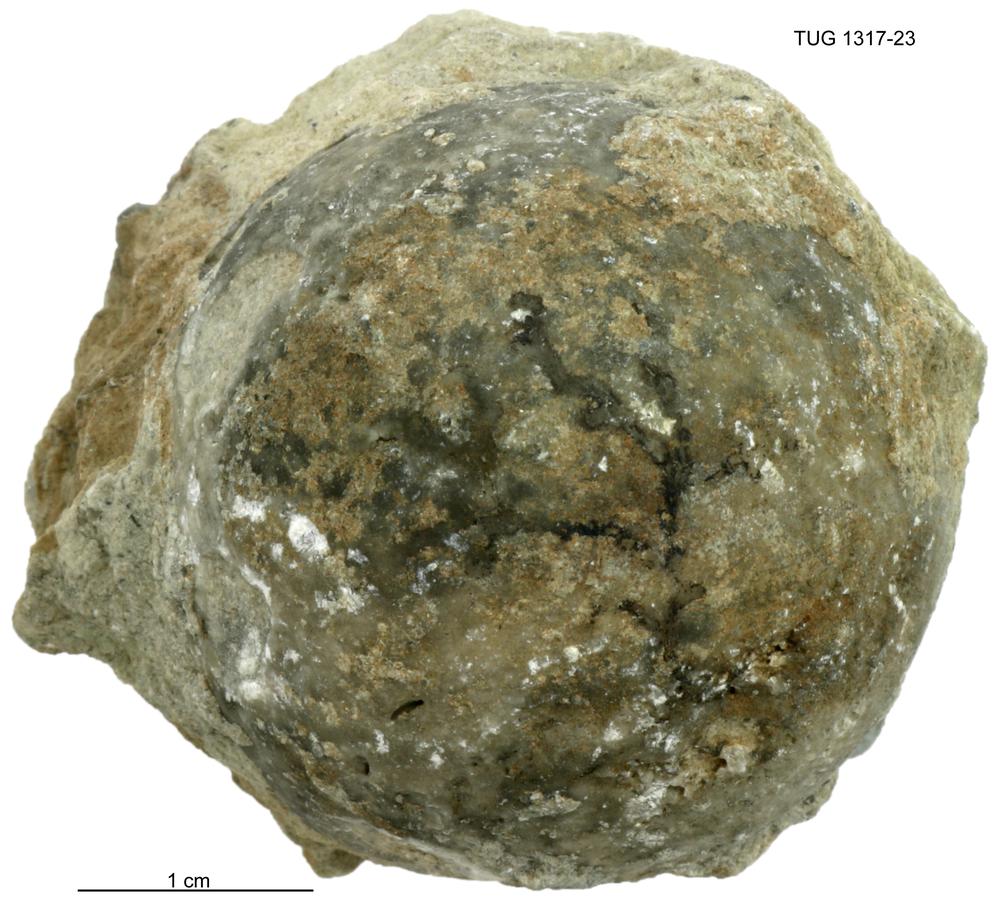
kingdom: Animalia
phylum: Hemichordata
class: Pterobranchia
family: Acanthograptidae
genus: Thallograptus
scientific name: Thallograptus
